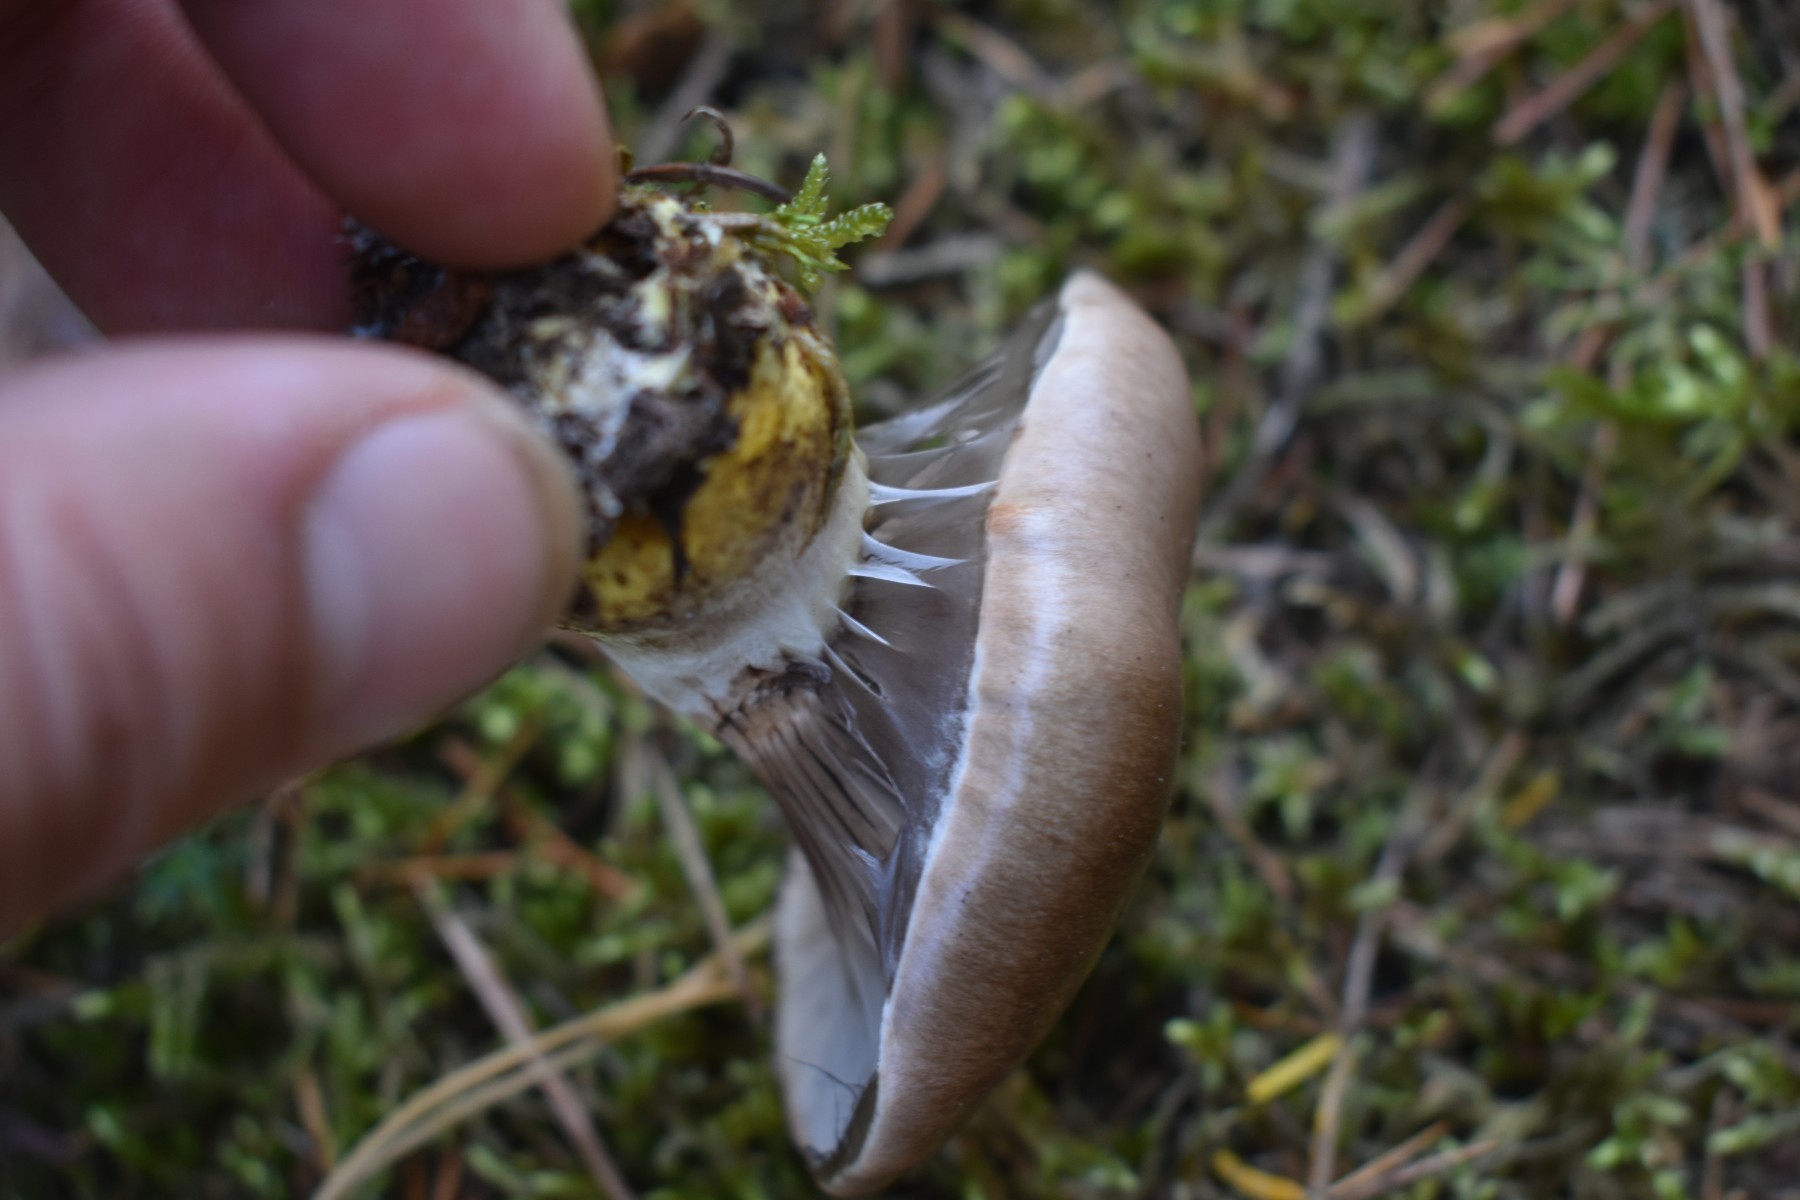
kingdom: Fungi
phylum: Basidiomycota
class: Agaricomycetes
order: Boletales
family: Gomphidiaceae
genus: Gomphidius
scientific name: Gomphidius glutinosus
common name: grå slimslør
